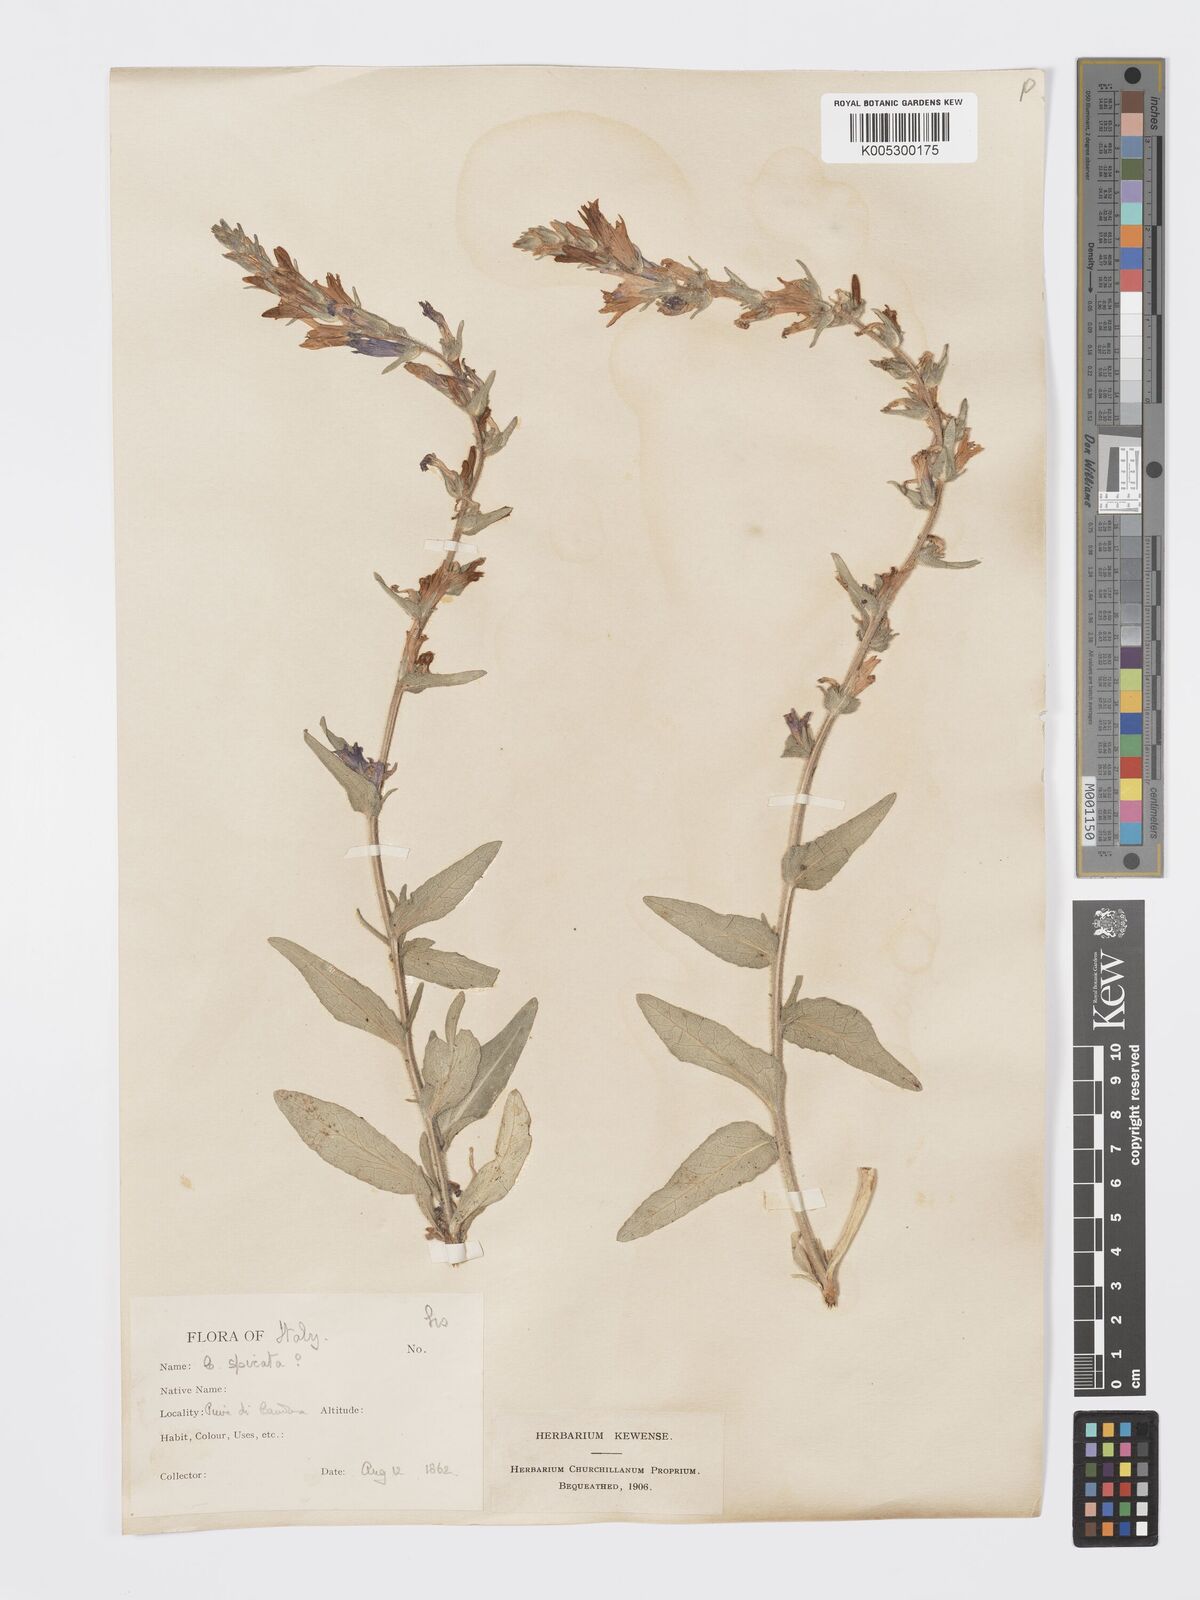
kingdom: Plantae
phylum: Tracheophyta
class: Magnoliopsida
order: Asterales
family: Campanulaceae
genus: Campanula
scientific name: Campanula spicata
